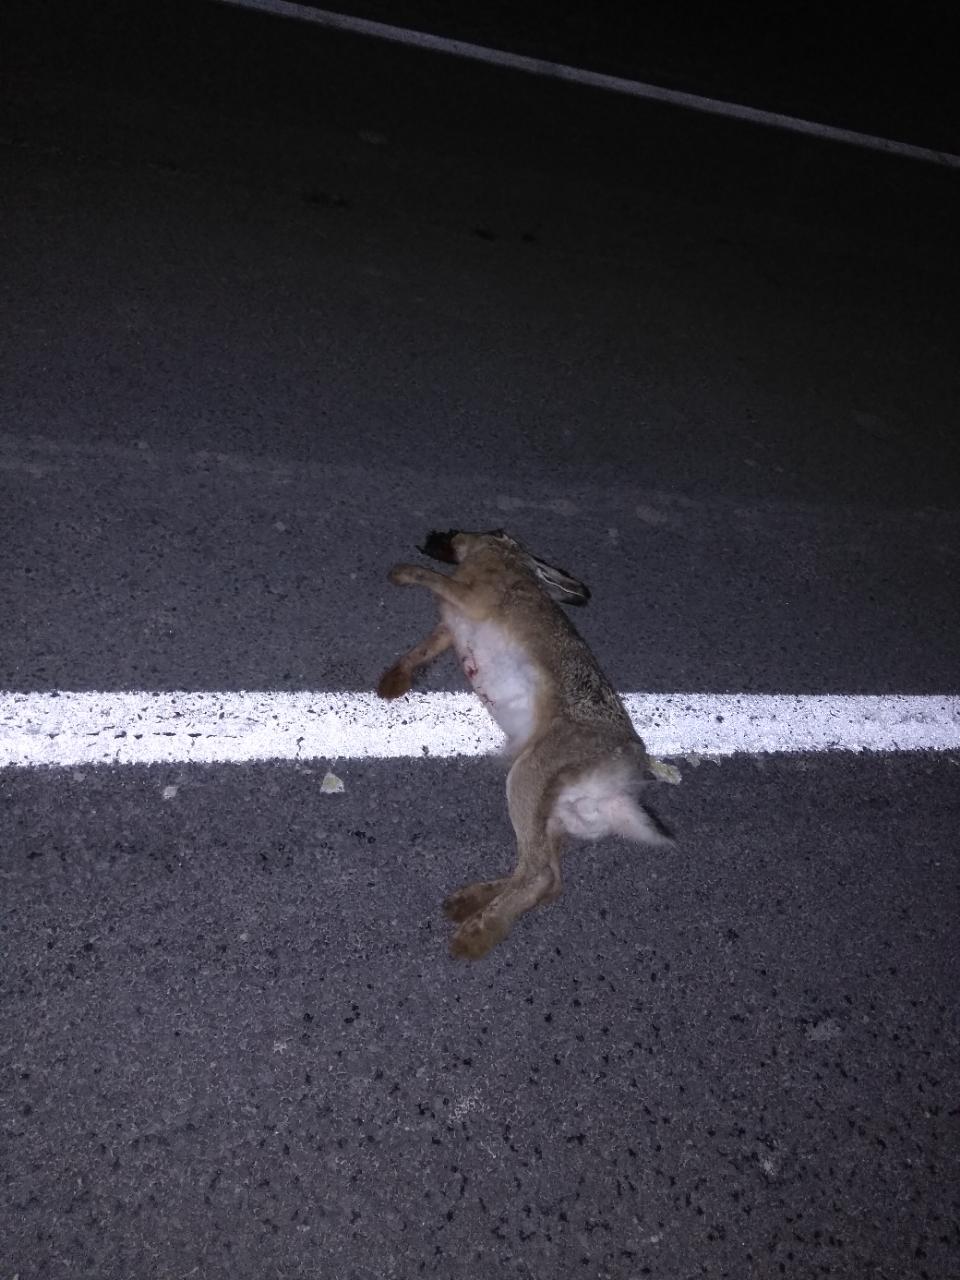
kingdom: Animalia
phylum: Chordata
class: Mammalia
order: Lagomorpha
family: Leporidae
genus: Lepus
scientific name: Lepus europaeus
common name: European hare
